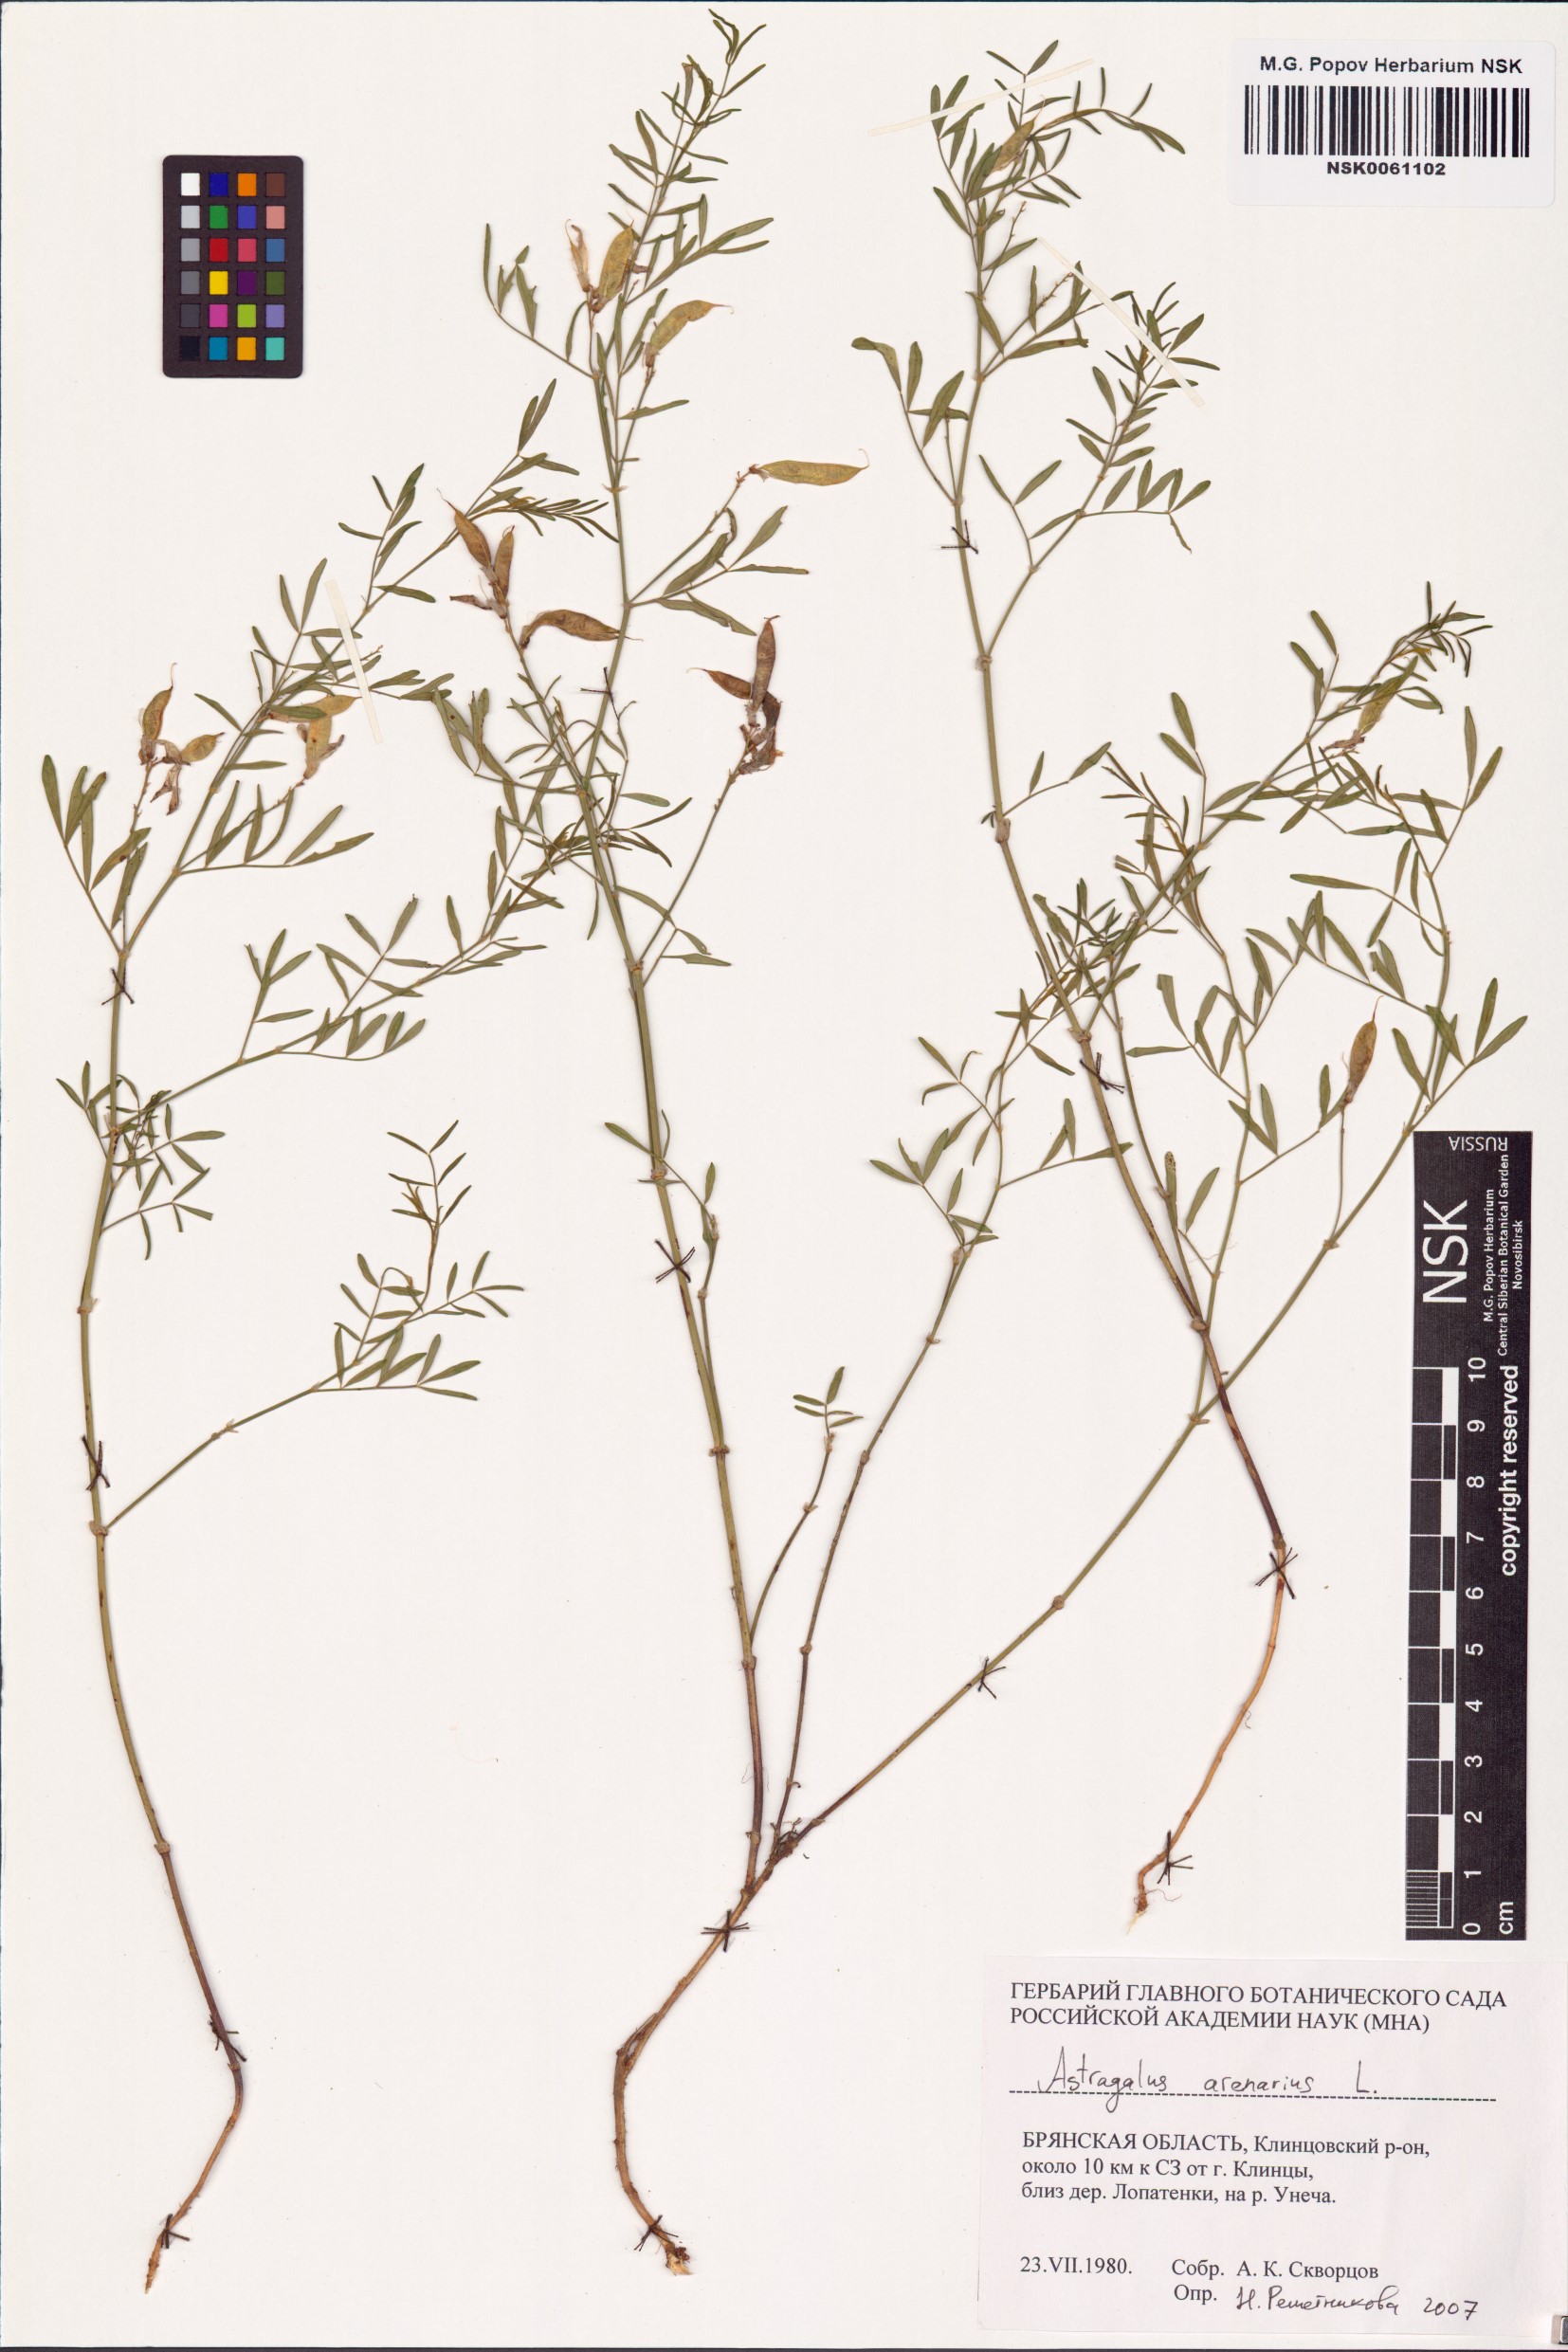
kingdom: Plantae
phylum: Tracheophyta
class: Magnoliopsida
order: Fabales
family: Fabaceae
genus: Astragalus
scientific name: Astragalus arenarius
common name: Arenarious milk-vetch
